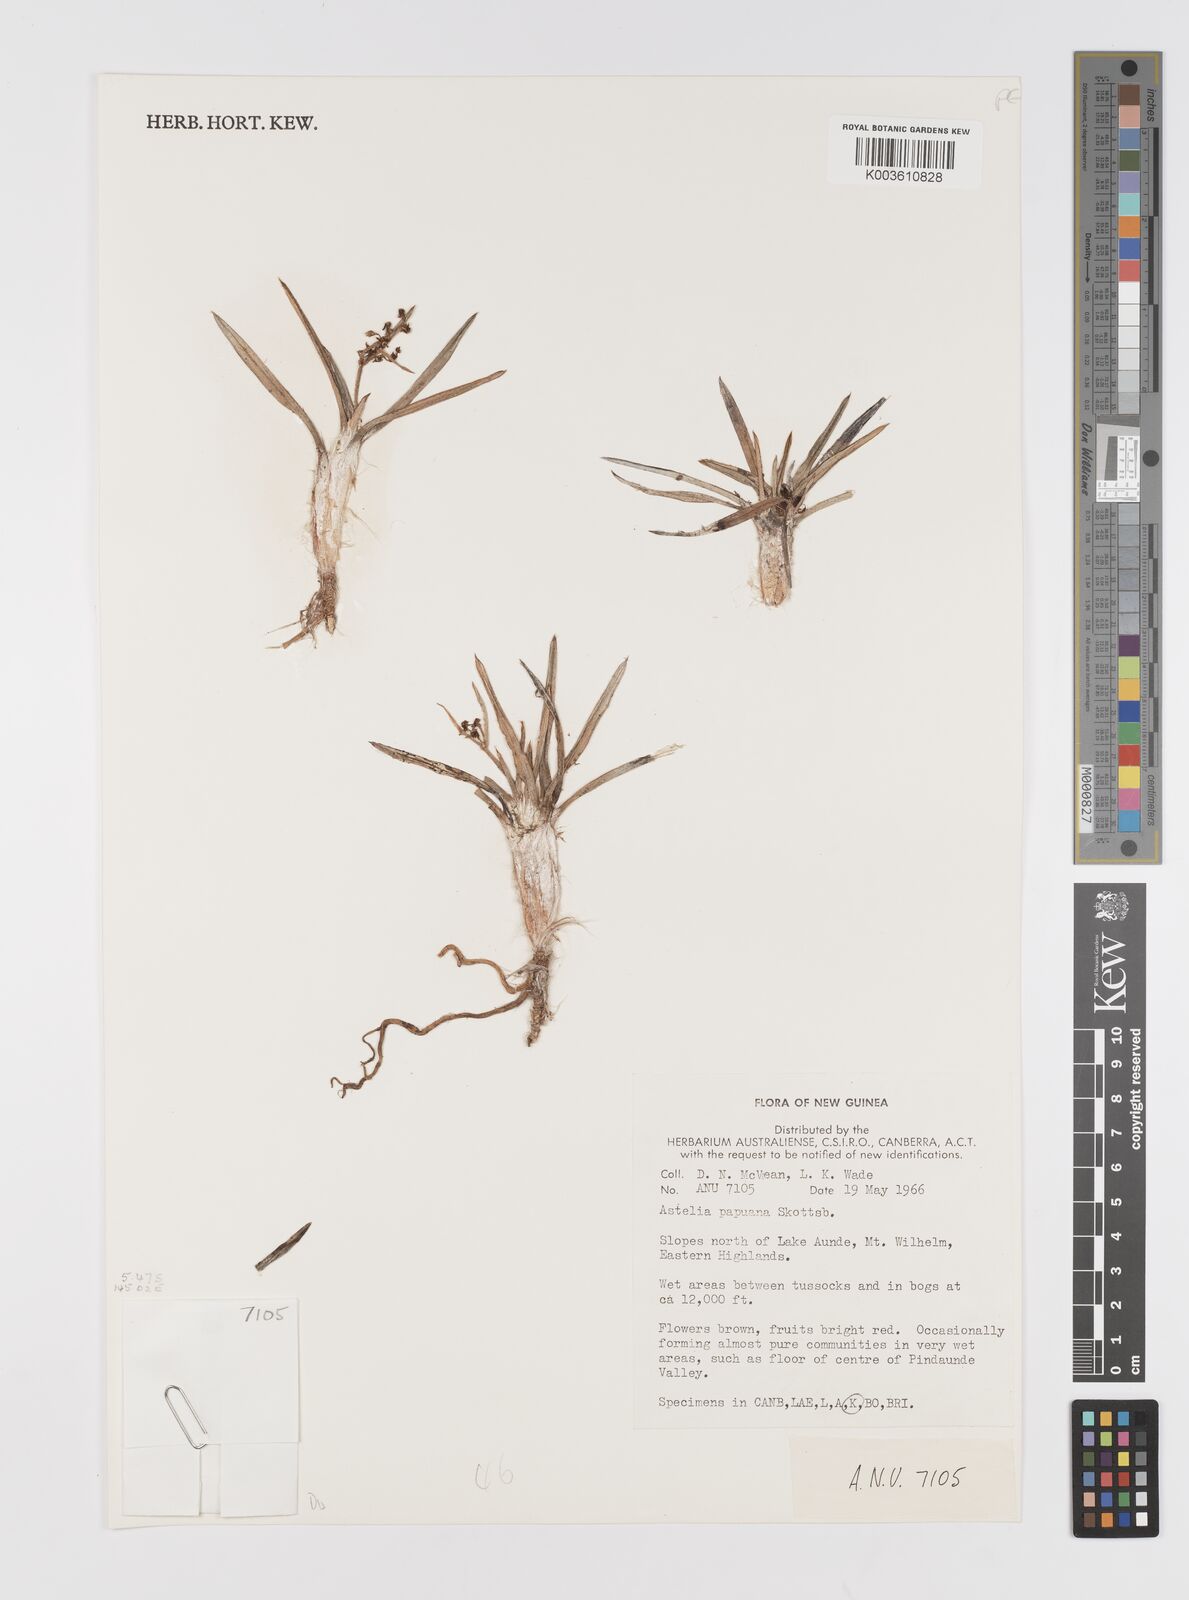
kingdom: Plantae
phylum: Tracheophyta
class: Liliopsida
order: Asparagales
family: Asteliaceae
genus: Astelia
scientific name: Astelia papuana
